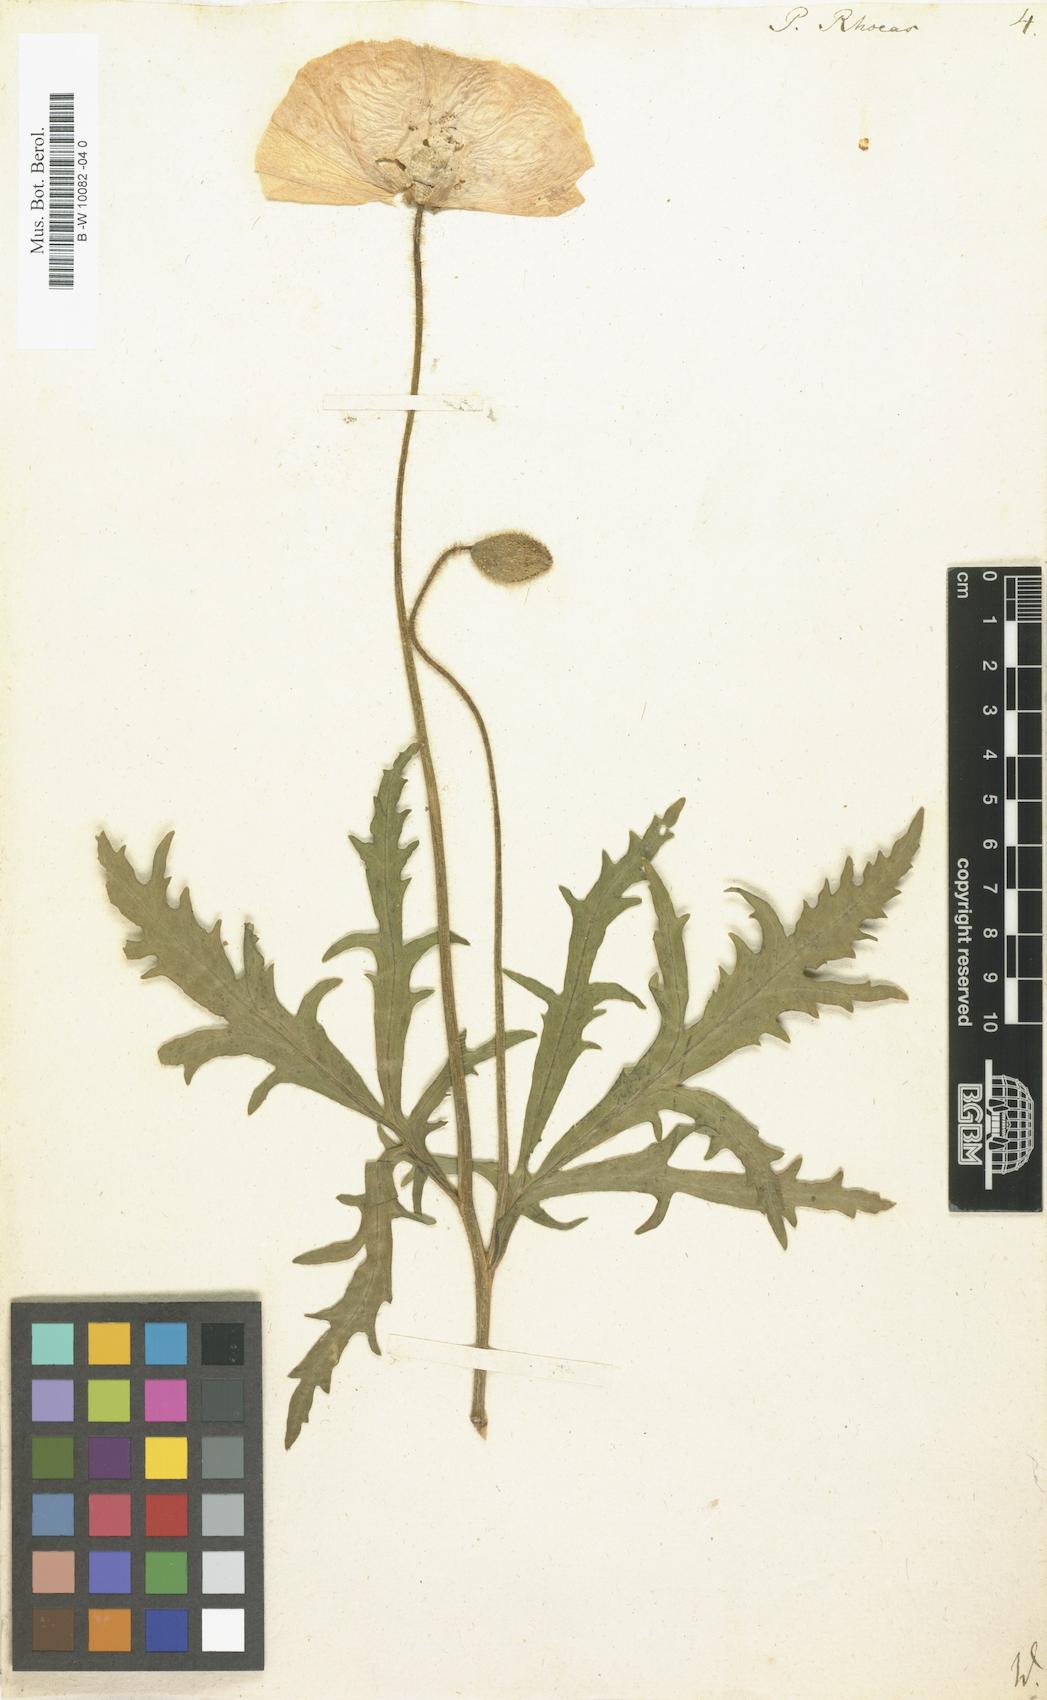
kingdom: Plantae
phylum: Tracheophyta
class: Magnoliopsida
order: Ranunculales
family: Papaveraceae
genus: Papaver
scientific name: Papaver rhoeas
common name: Corn poppy
